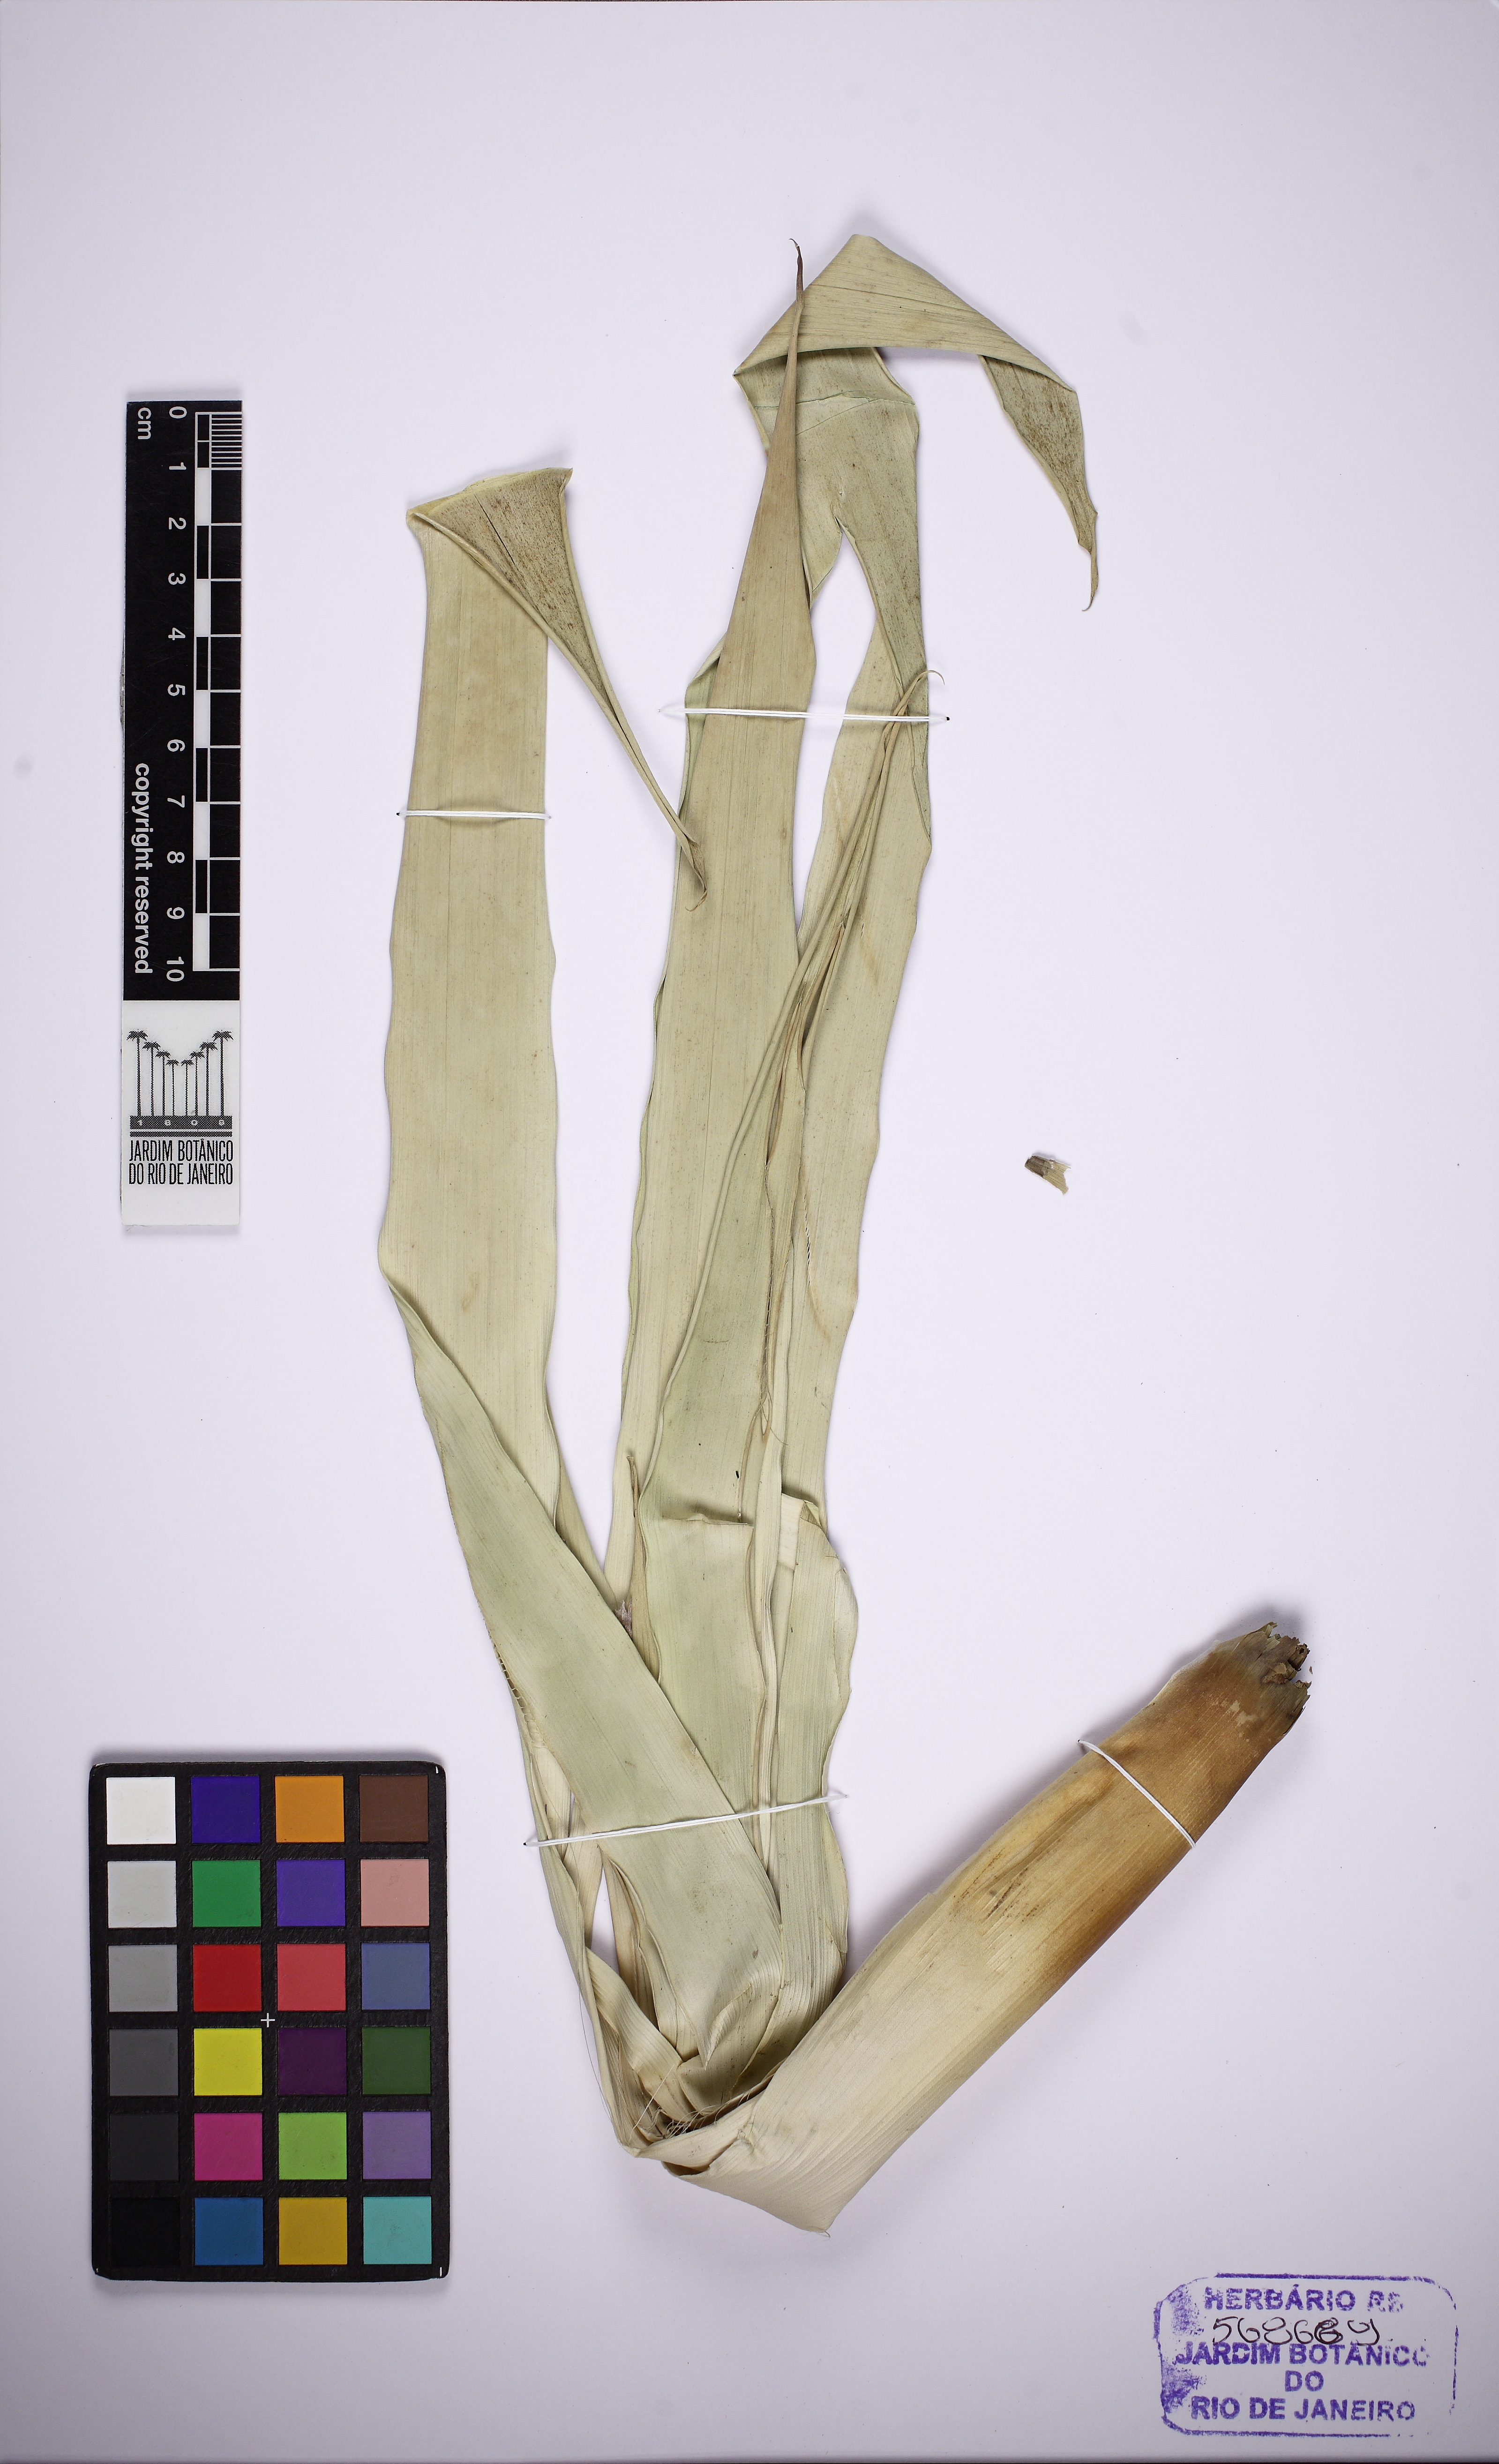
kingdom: Plantae
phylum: Tracheophyta
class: Liliopsida
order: Poales
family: Bromeliaceae
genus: Vriesea
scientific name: Vriesea neoglutinosa
